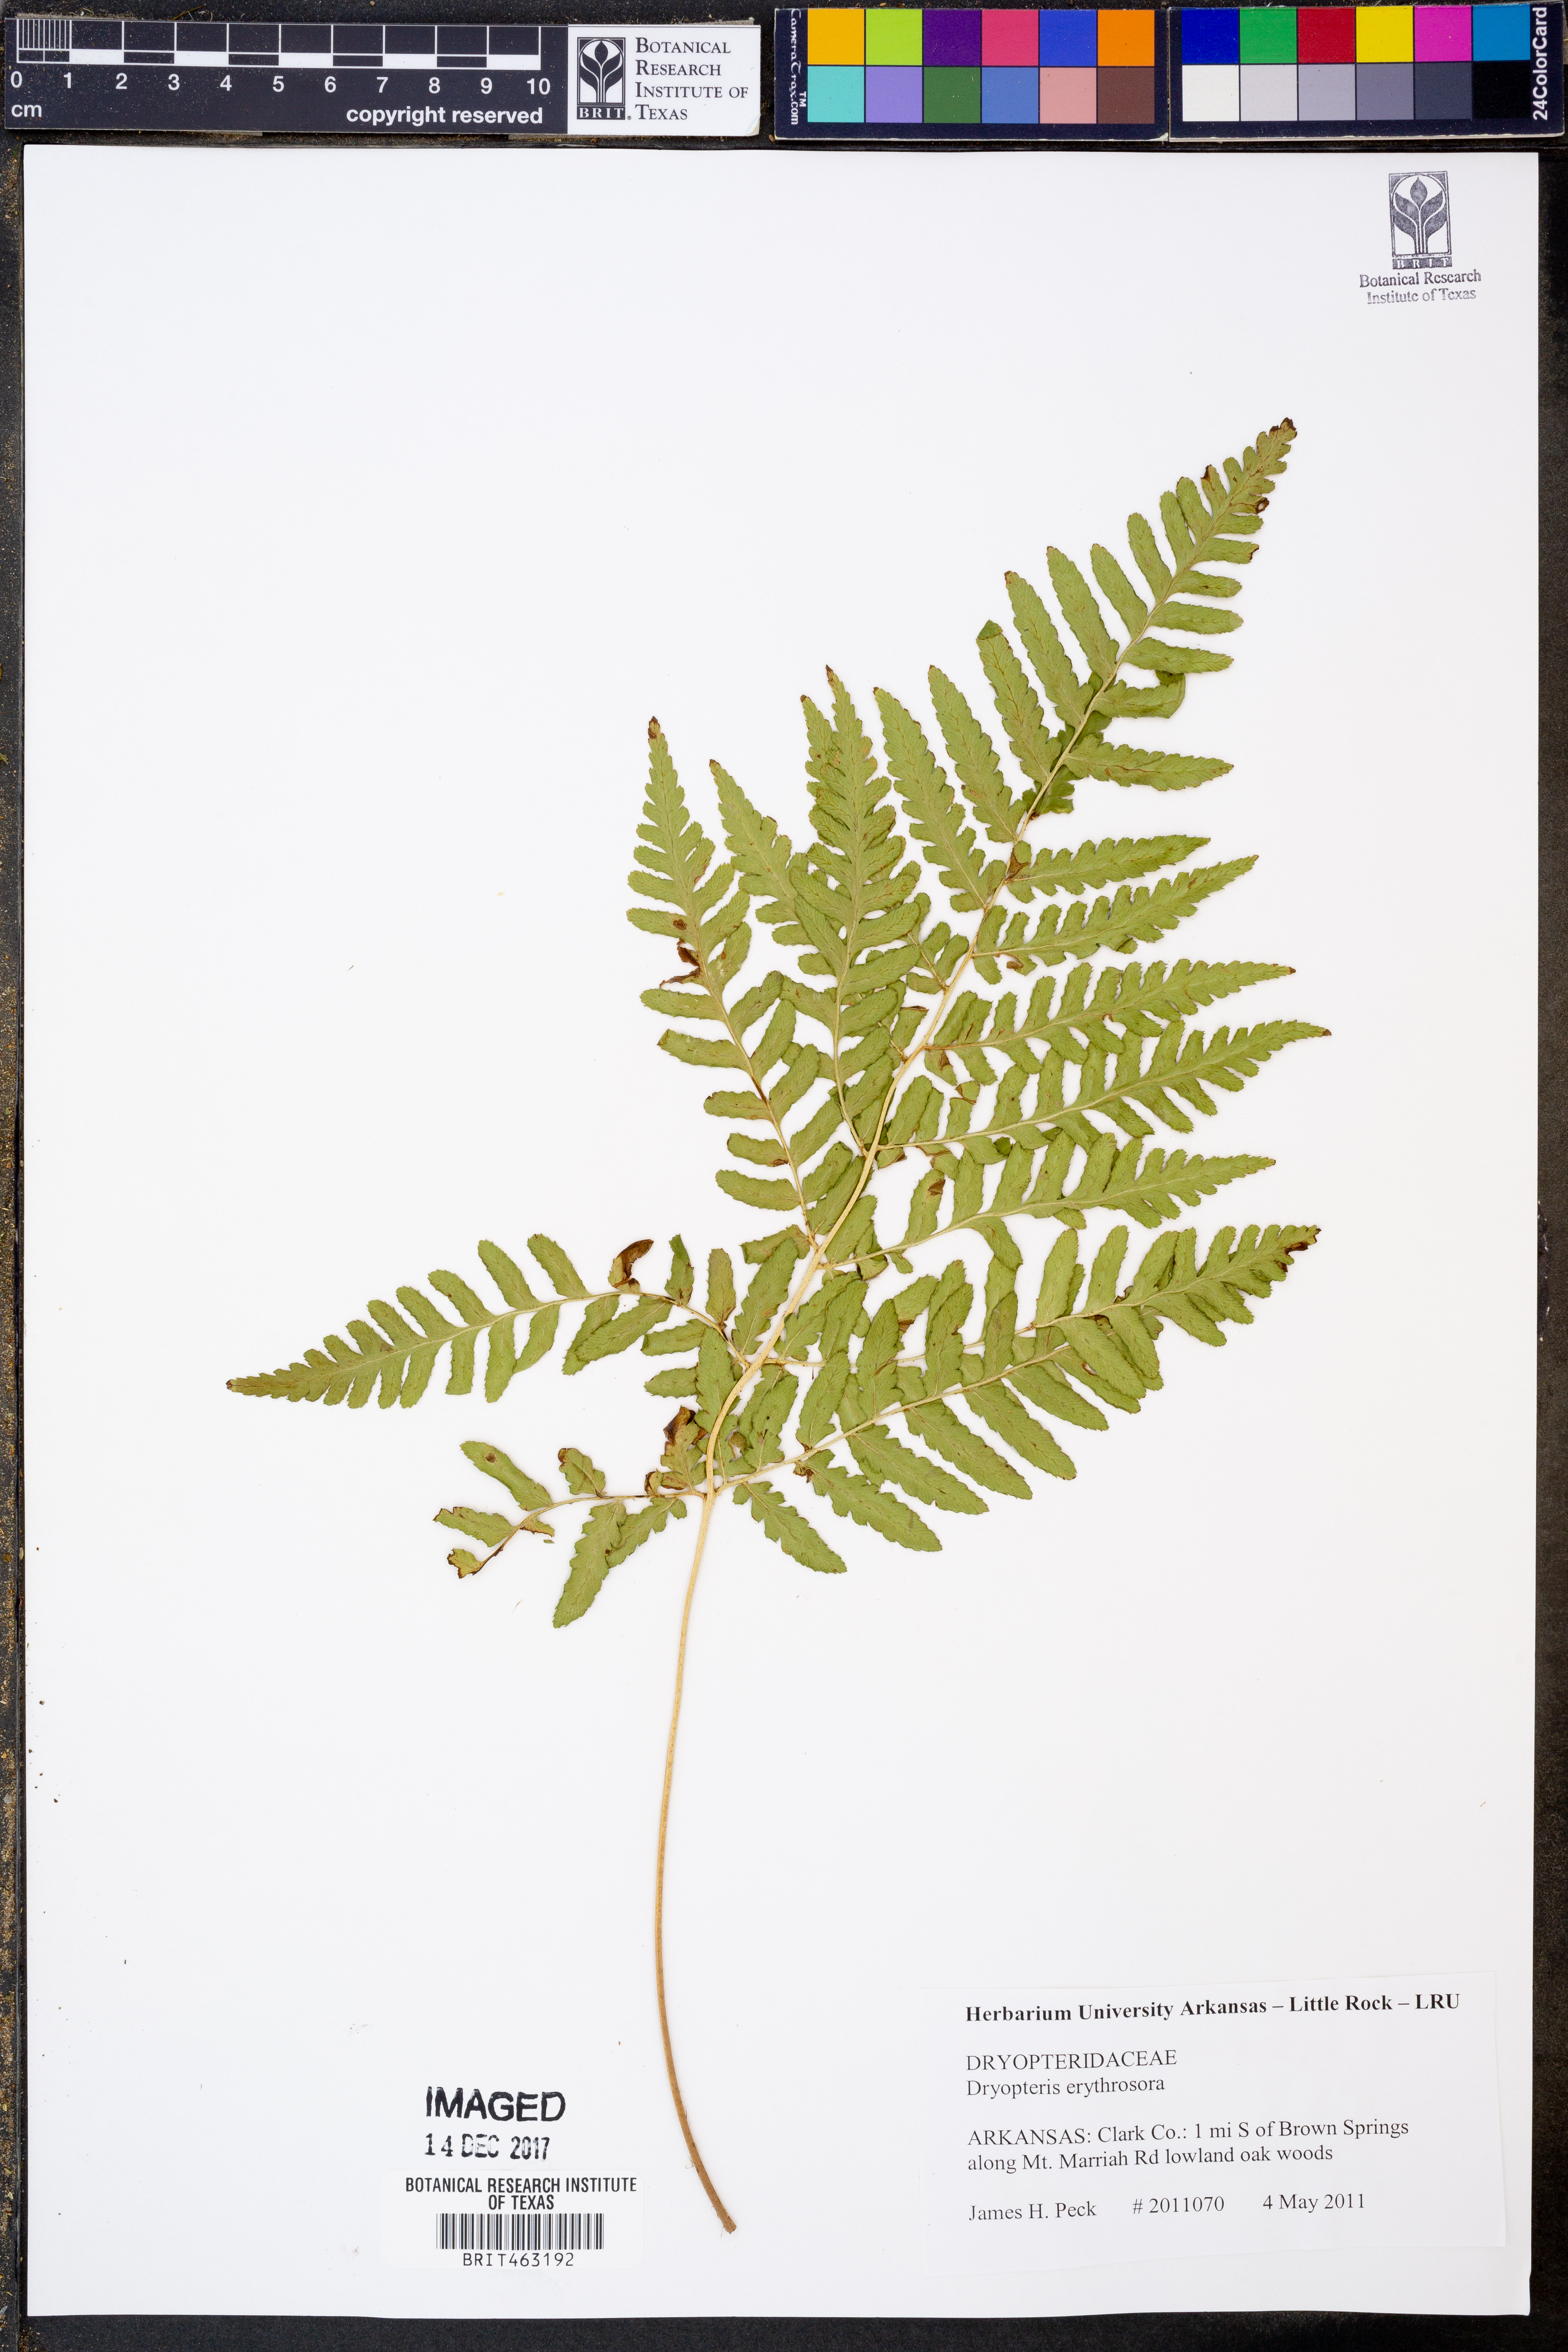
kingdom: Plantae
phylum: Tracheophyta
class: Polypodiopsida
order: Polypodiales
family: Dryopteridaceae
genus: Dryopteris
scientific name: Dryopteris erythrosora
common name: Autumn fern
